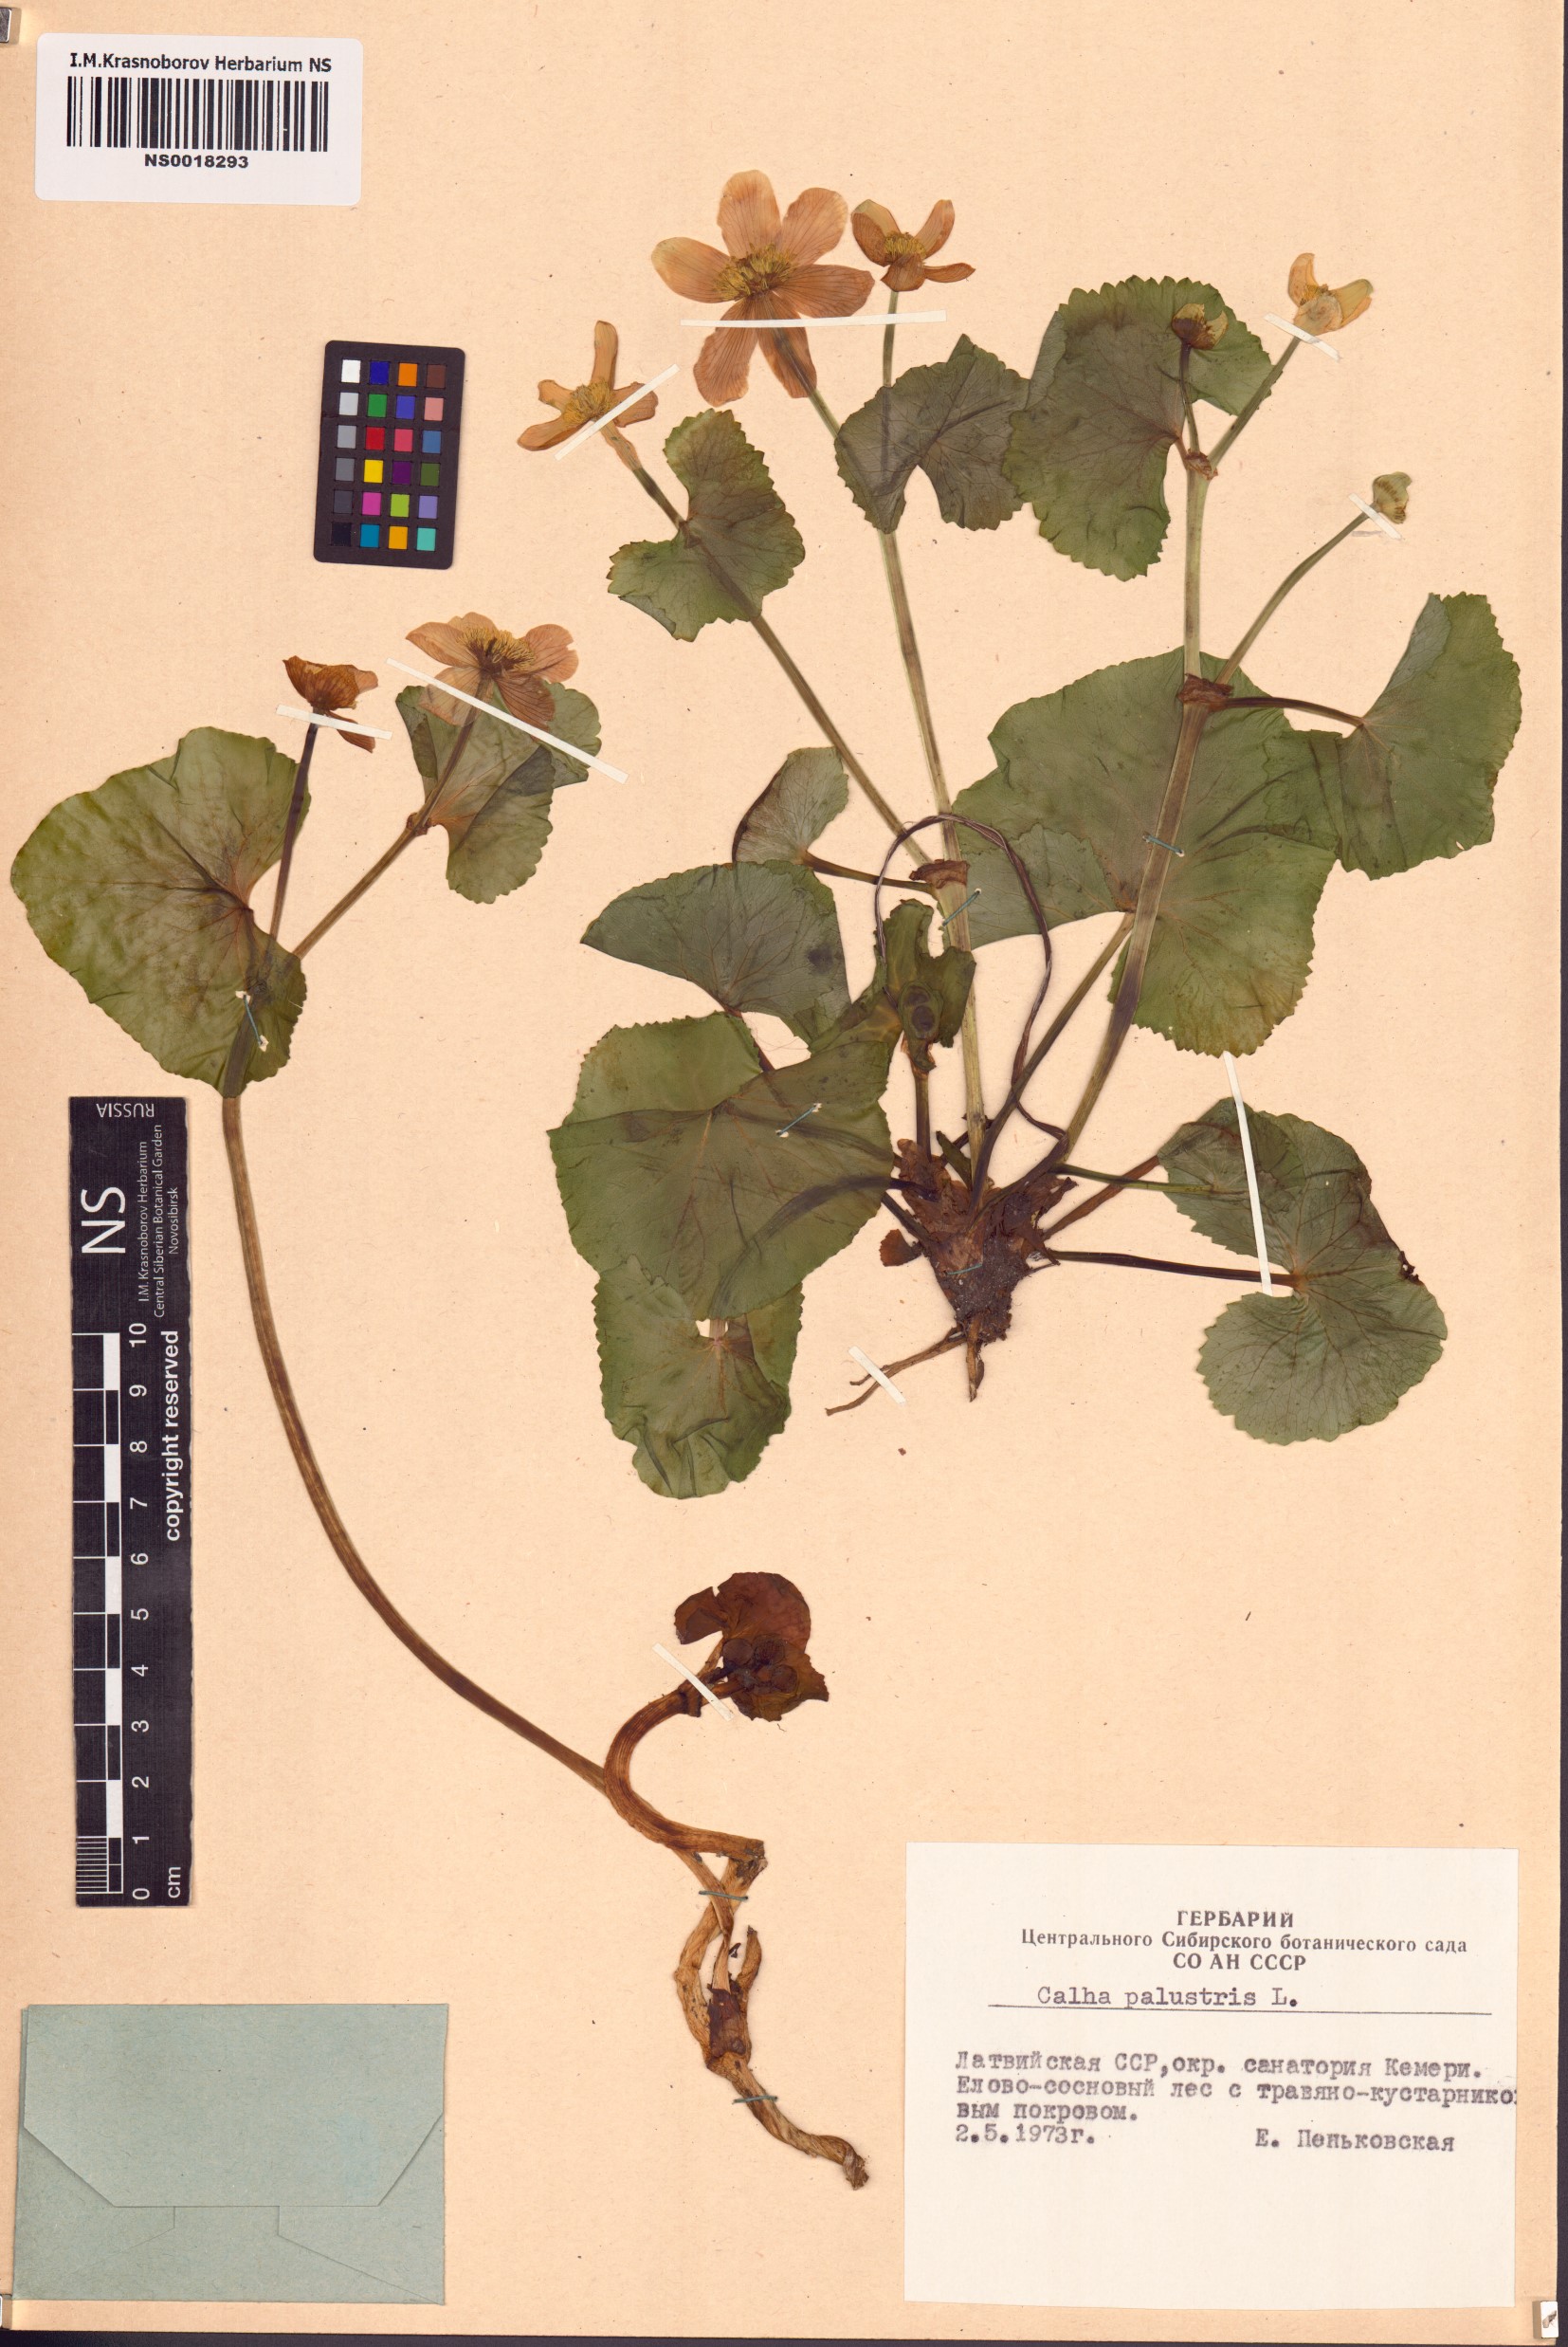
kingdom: Plantae
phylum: Tracheophyta
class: Magnoliopsida
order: Ranunculales
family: Ranunculaceae
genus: Caltha
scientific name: Caltha palustris
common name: Marsh marigold
